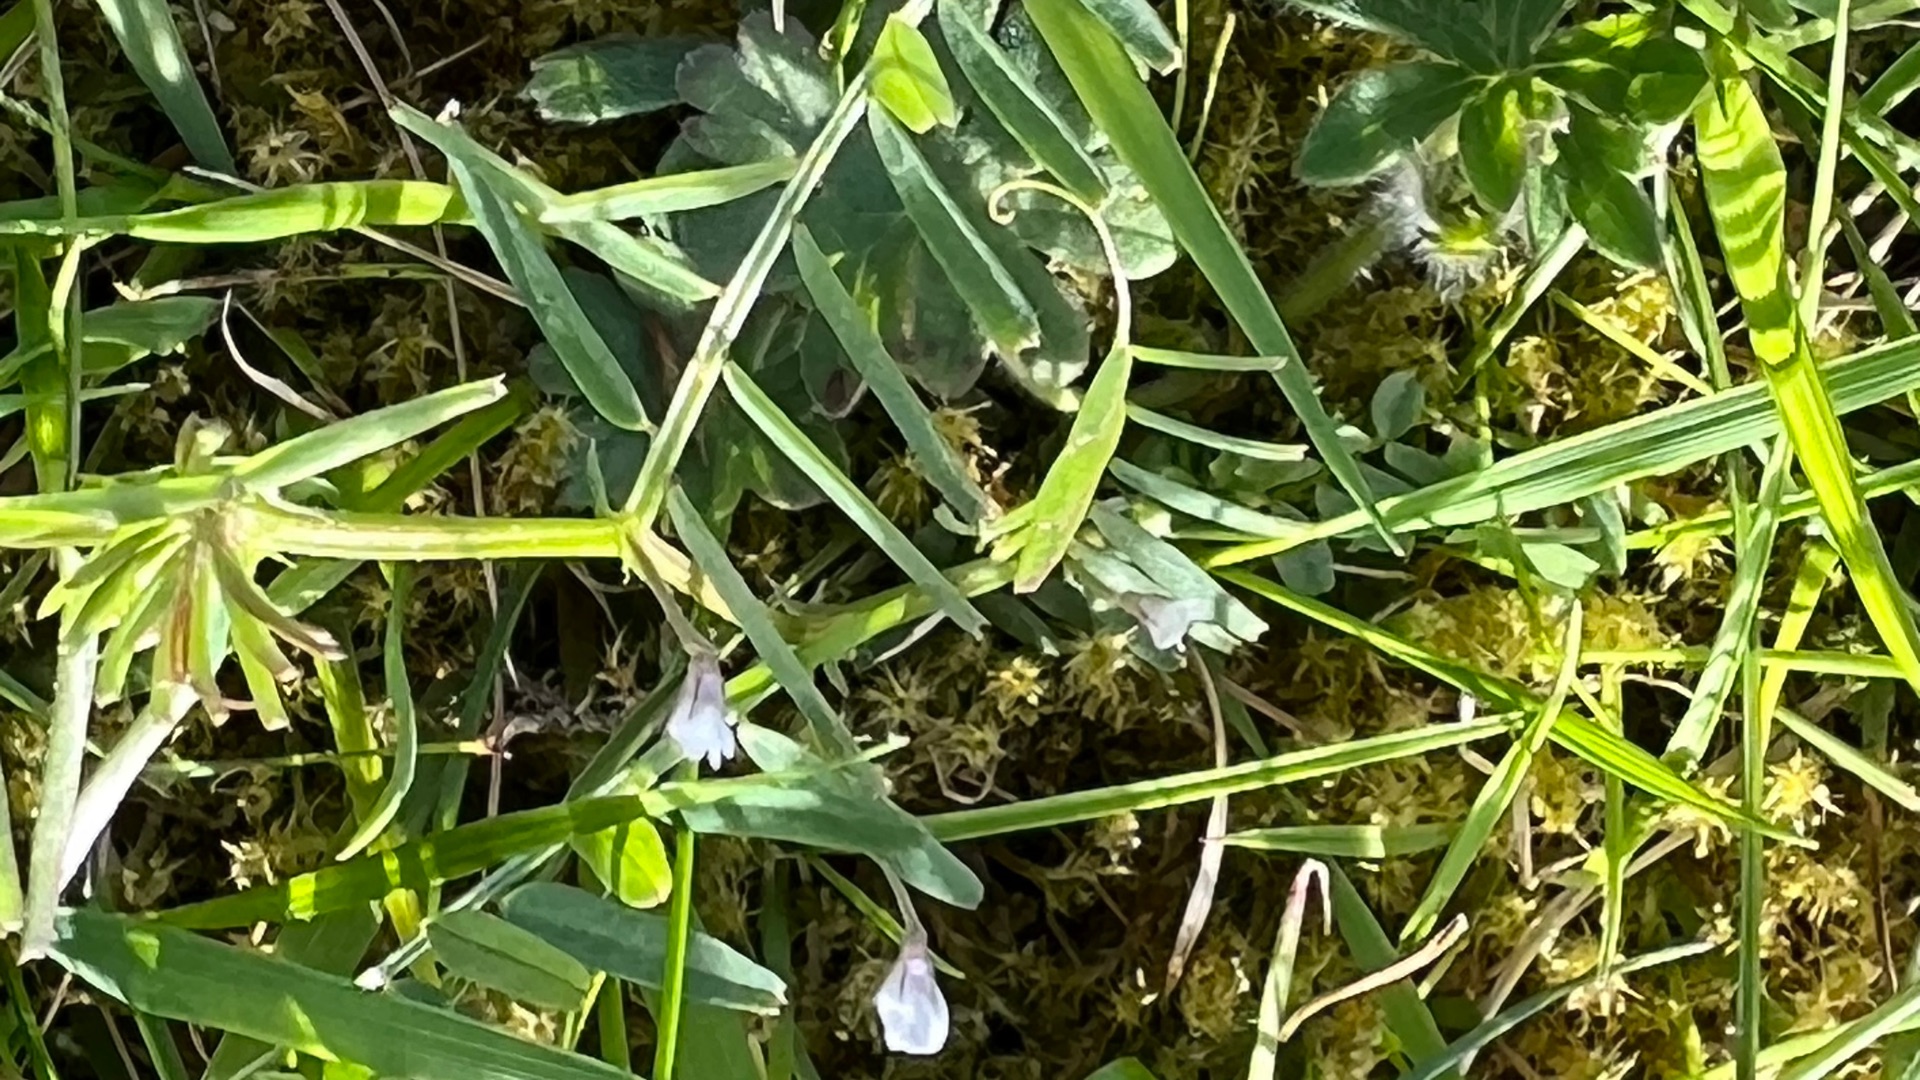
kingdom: Plantae
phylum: Tracheophyta
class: Magnoliopsida
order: Fabales
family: Fabaceae
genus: Vicia
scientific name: Vicia tetrasperma
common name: Tadder-vikke
